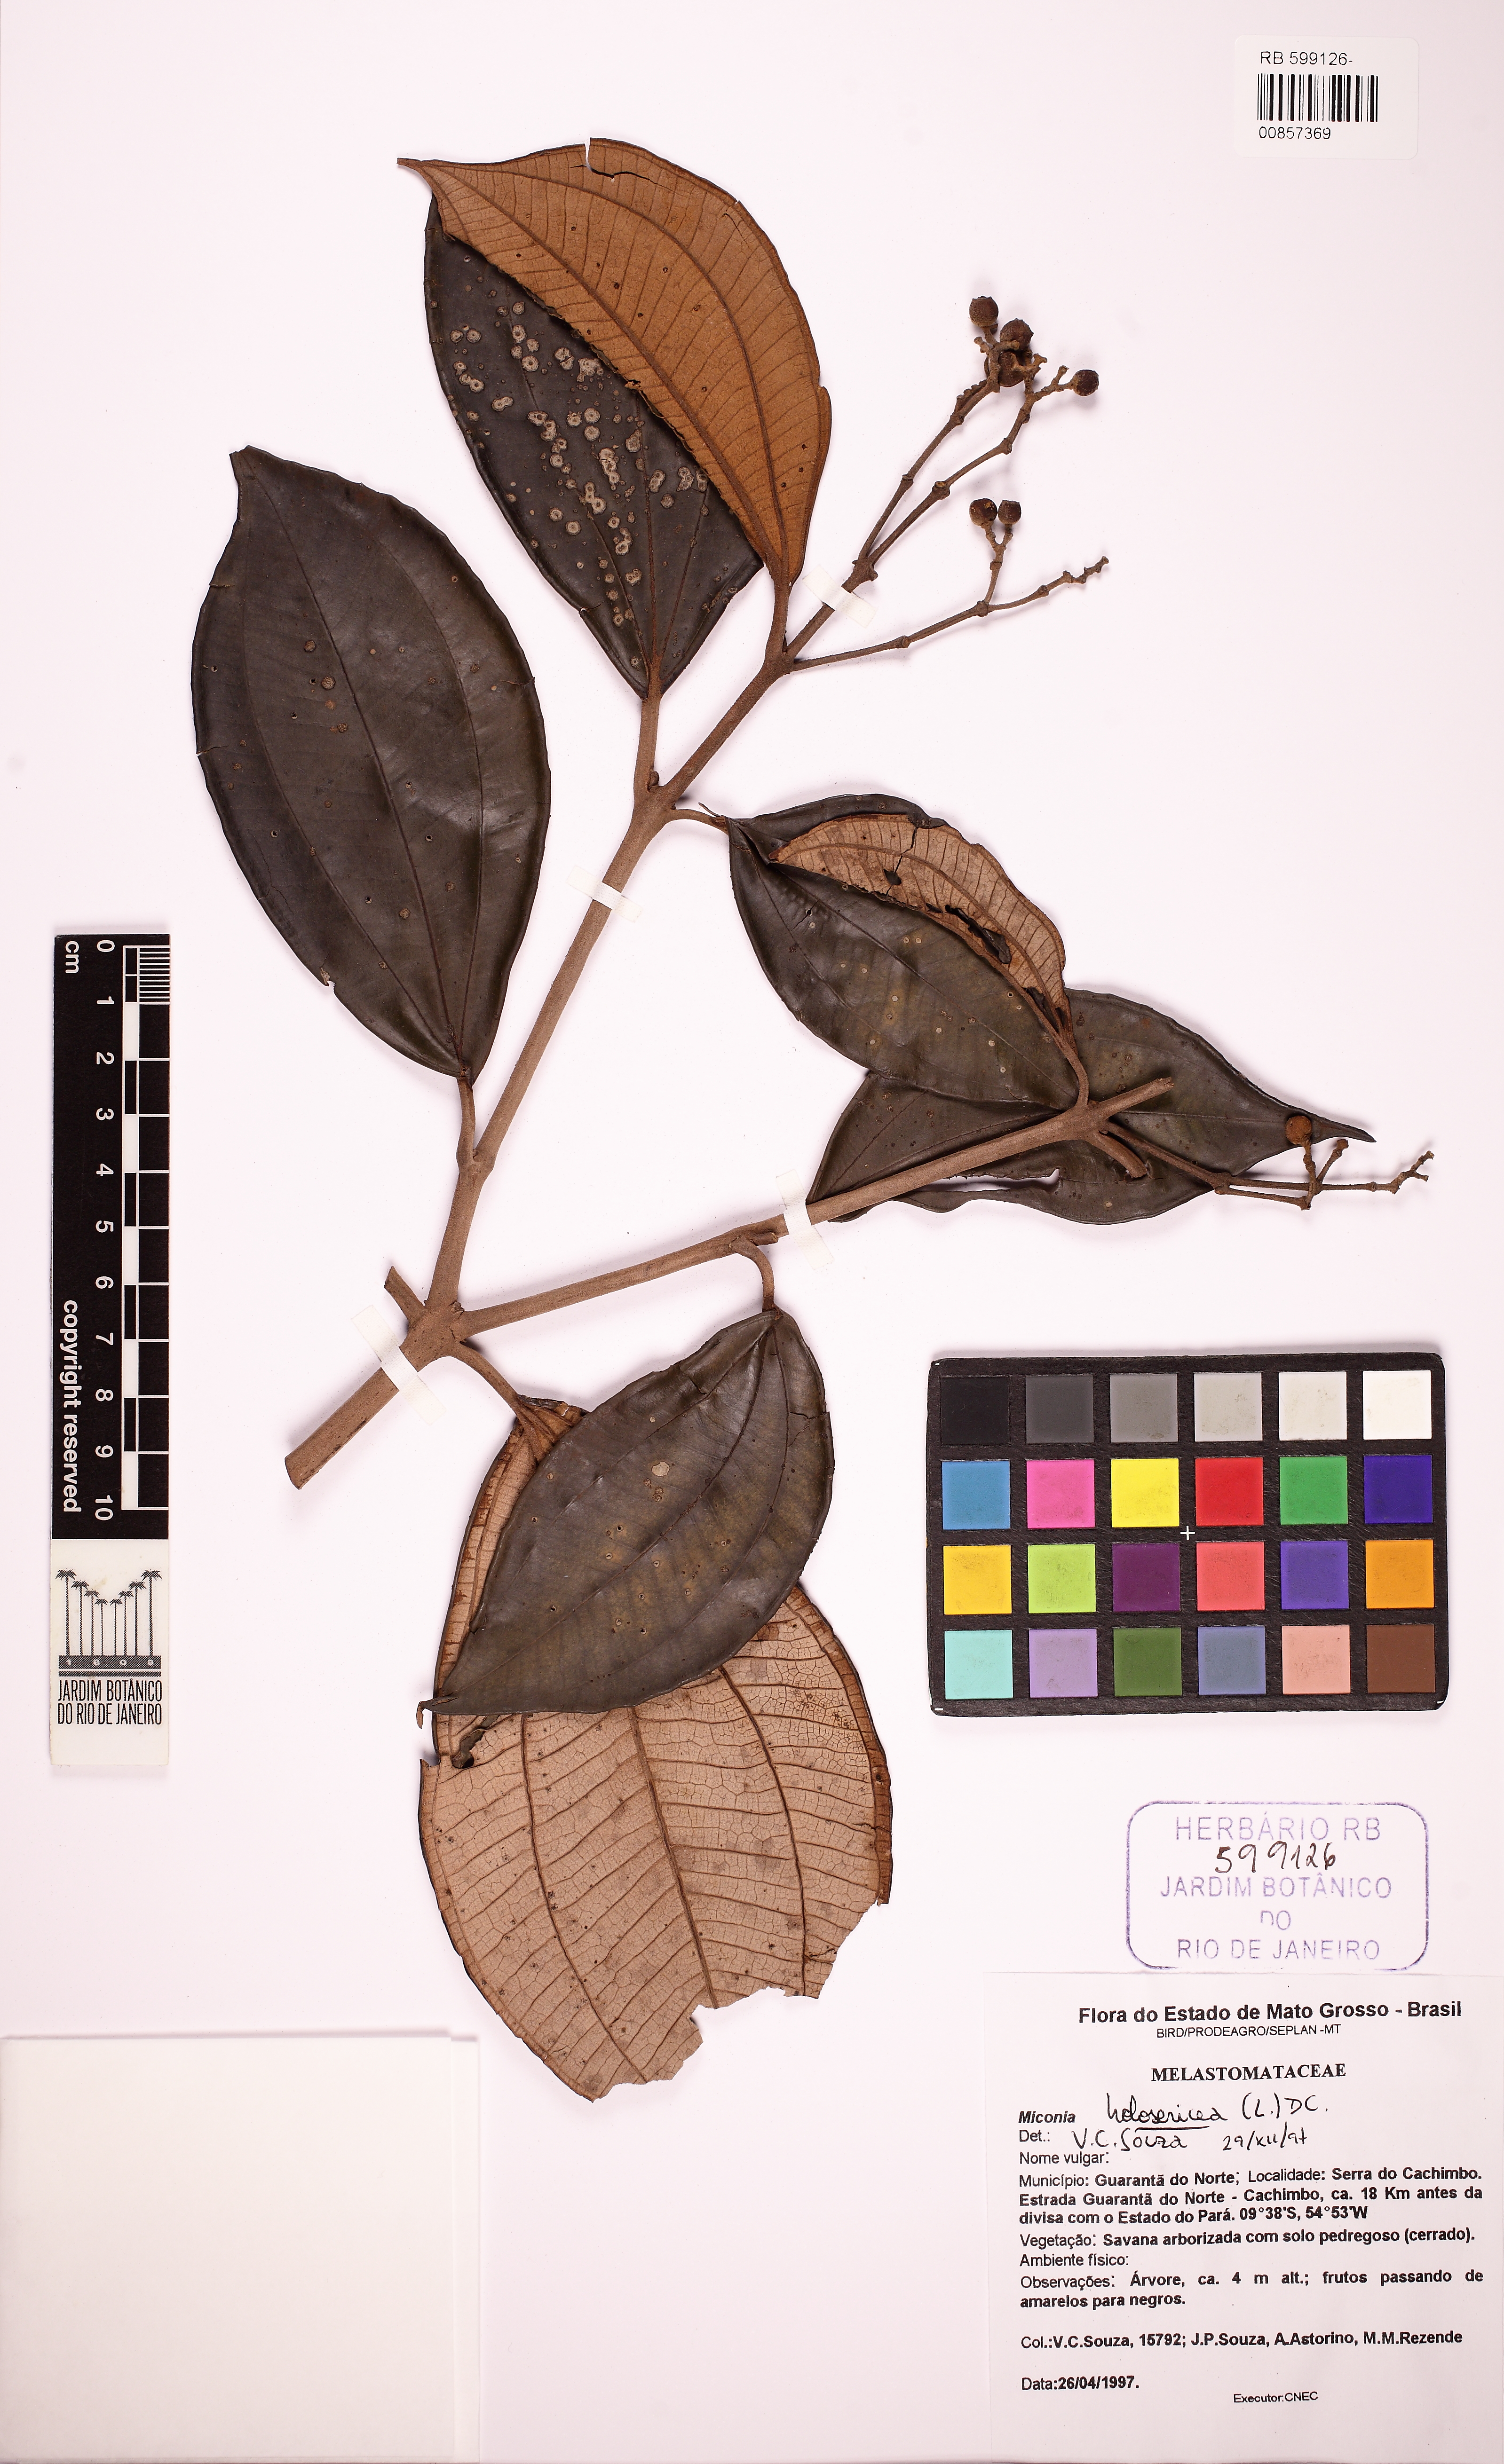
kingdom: Plantae
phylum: Tracheophyta
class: Magnoliopsida
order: Myrtales
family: Melastomataceae
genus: Miconia
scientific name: Miconia holosericea
